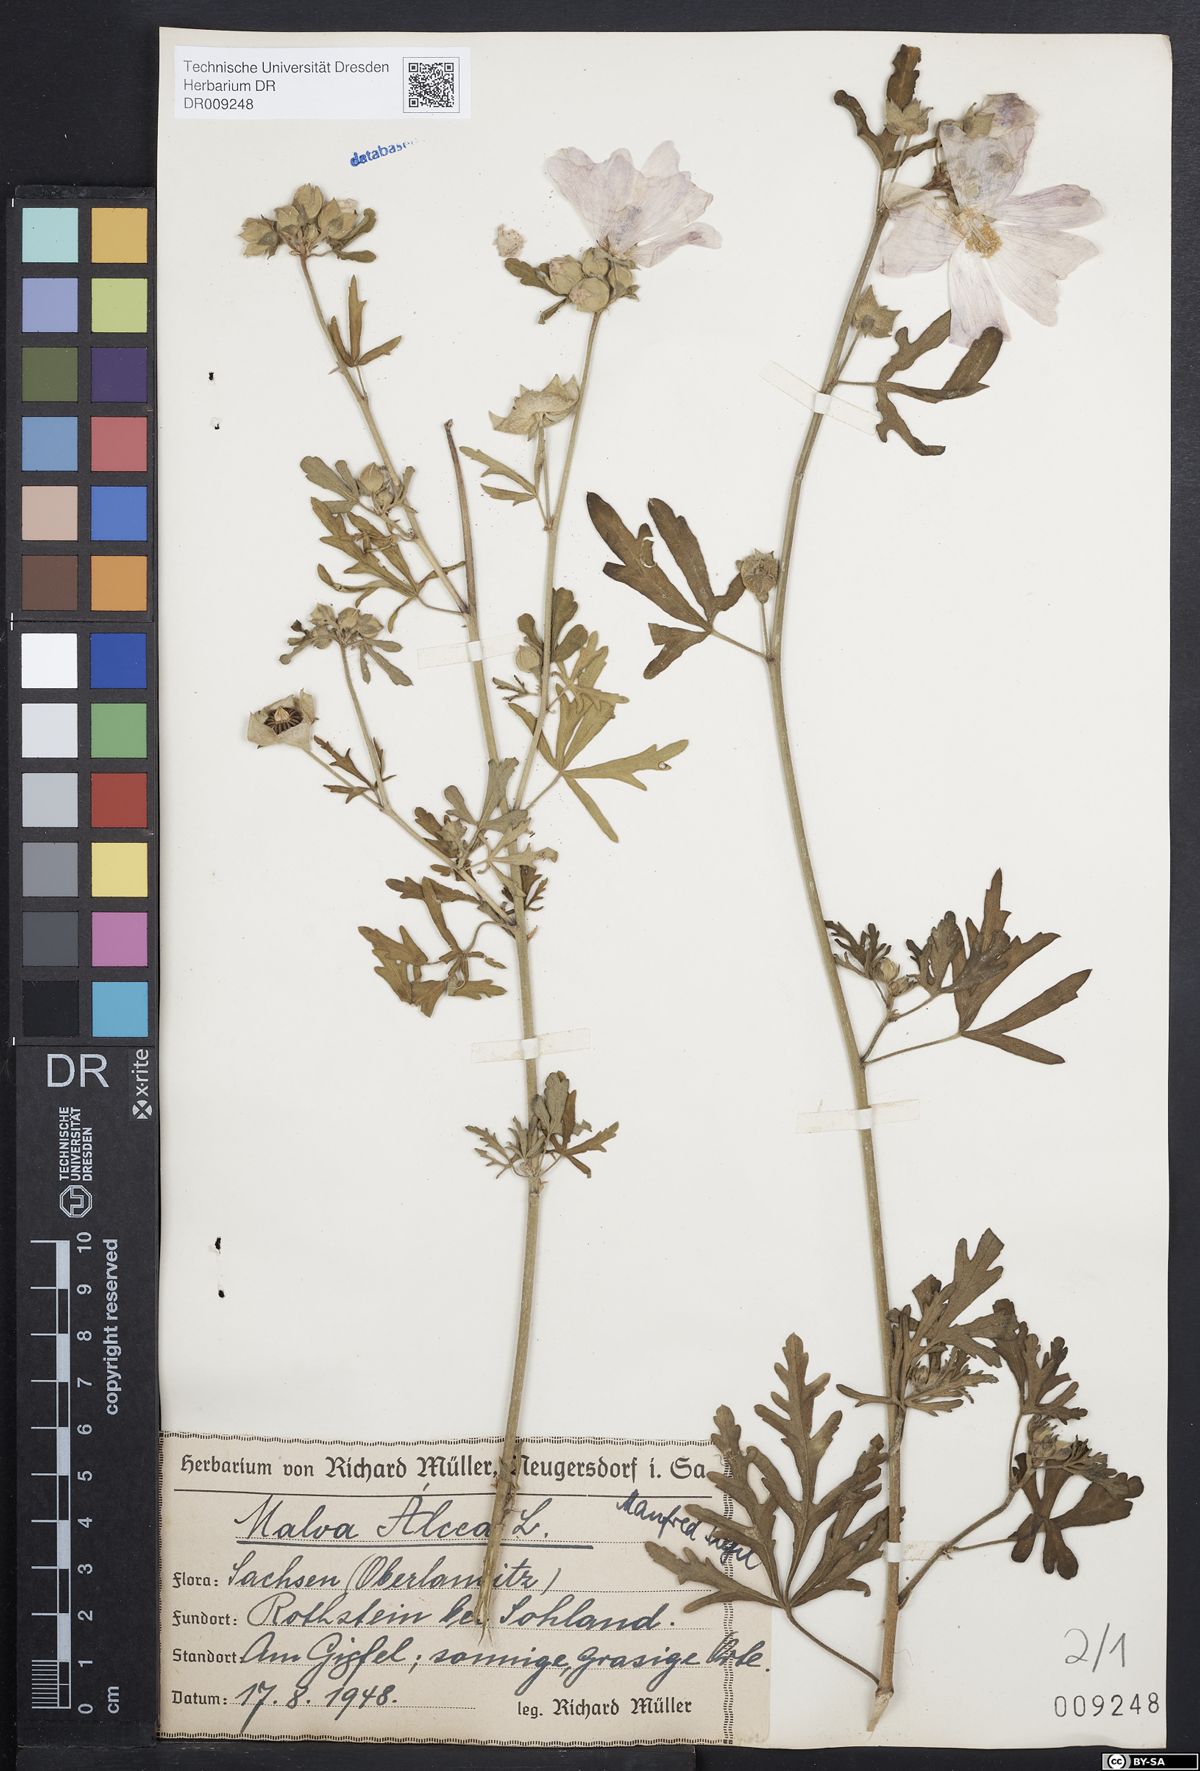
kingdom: Plantae
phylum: Tracheophyta
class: Magnoliopsida
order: Malvales
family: Malvaceae
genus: Malva
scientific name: Malva alcea
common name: Greater musk-mallow
